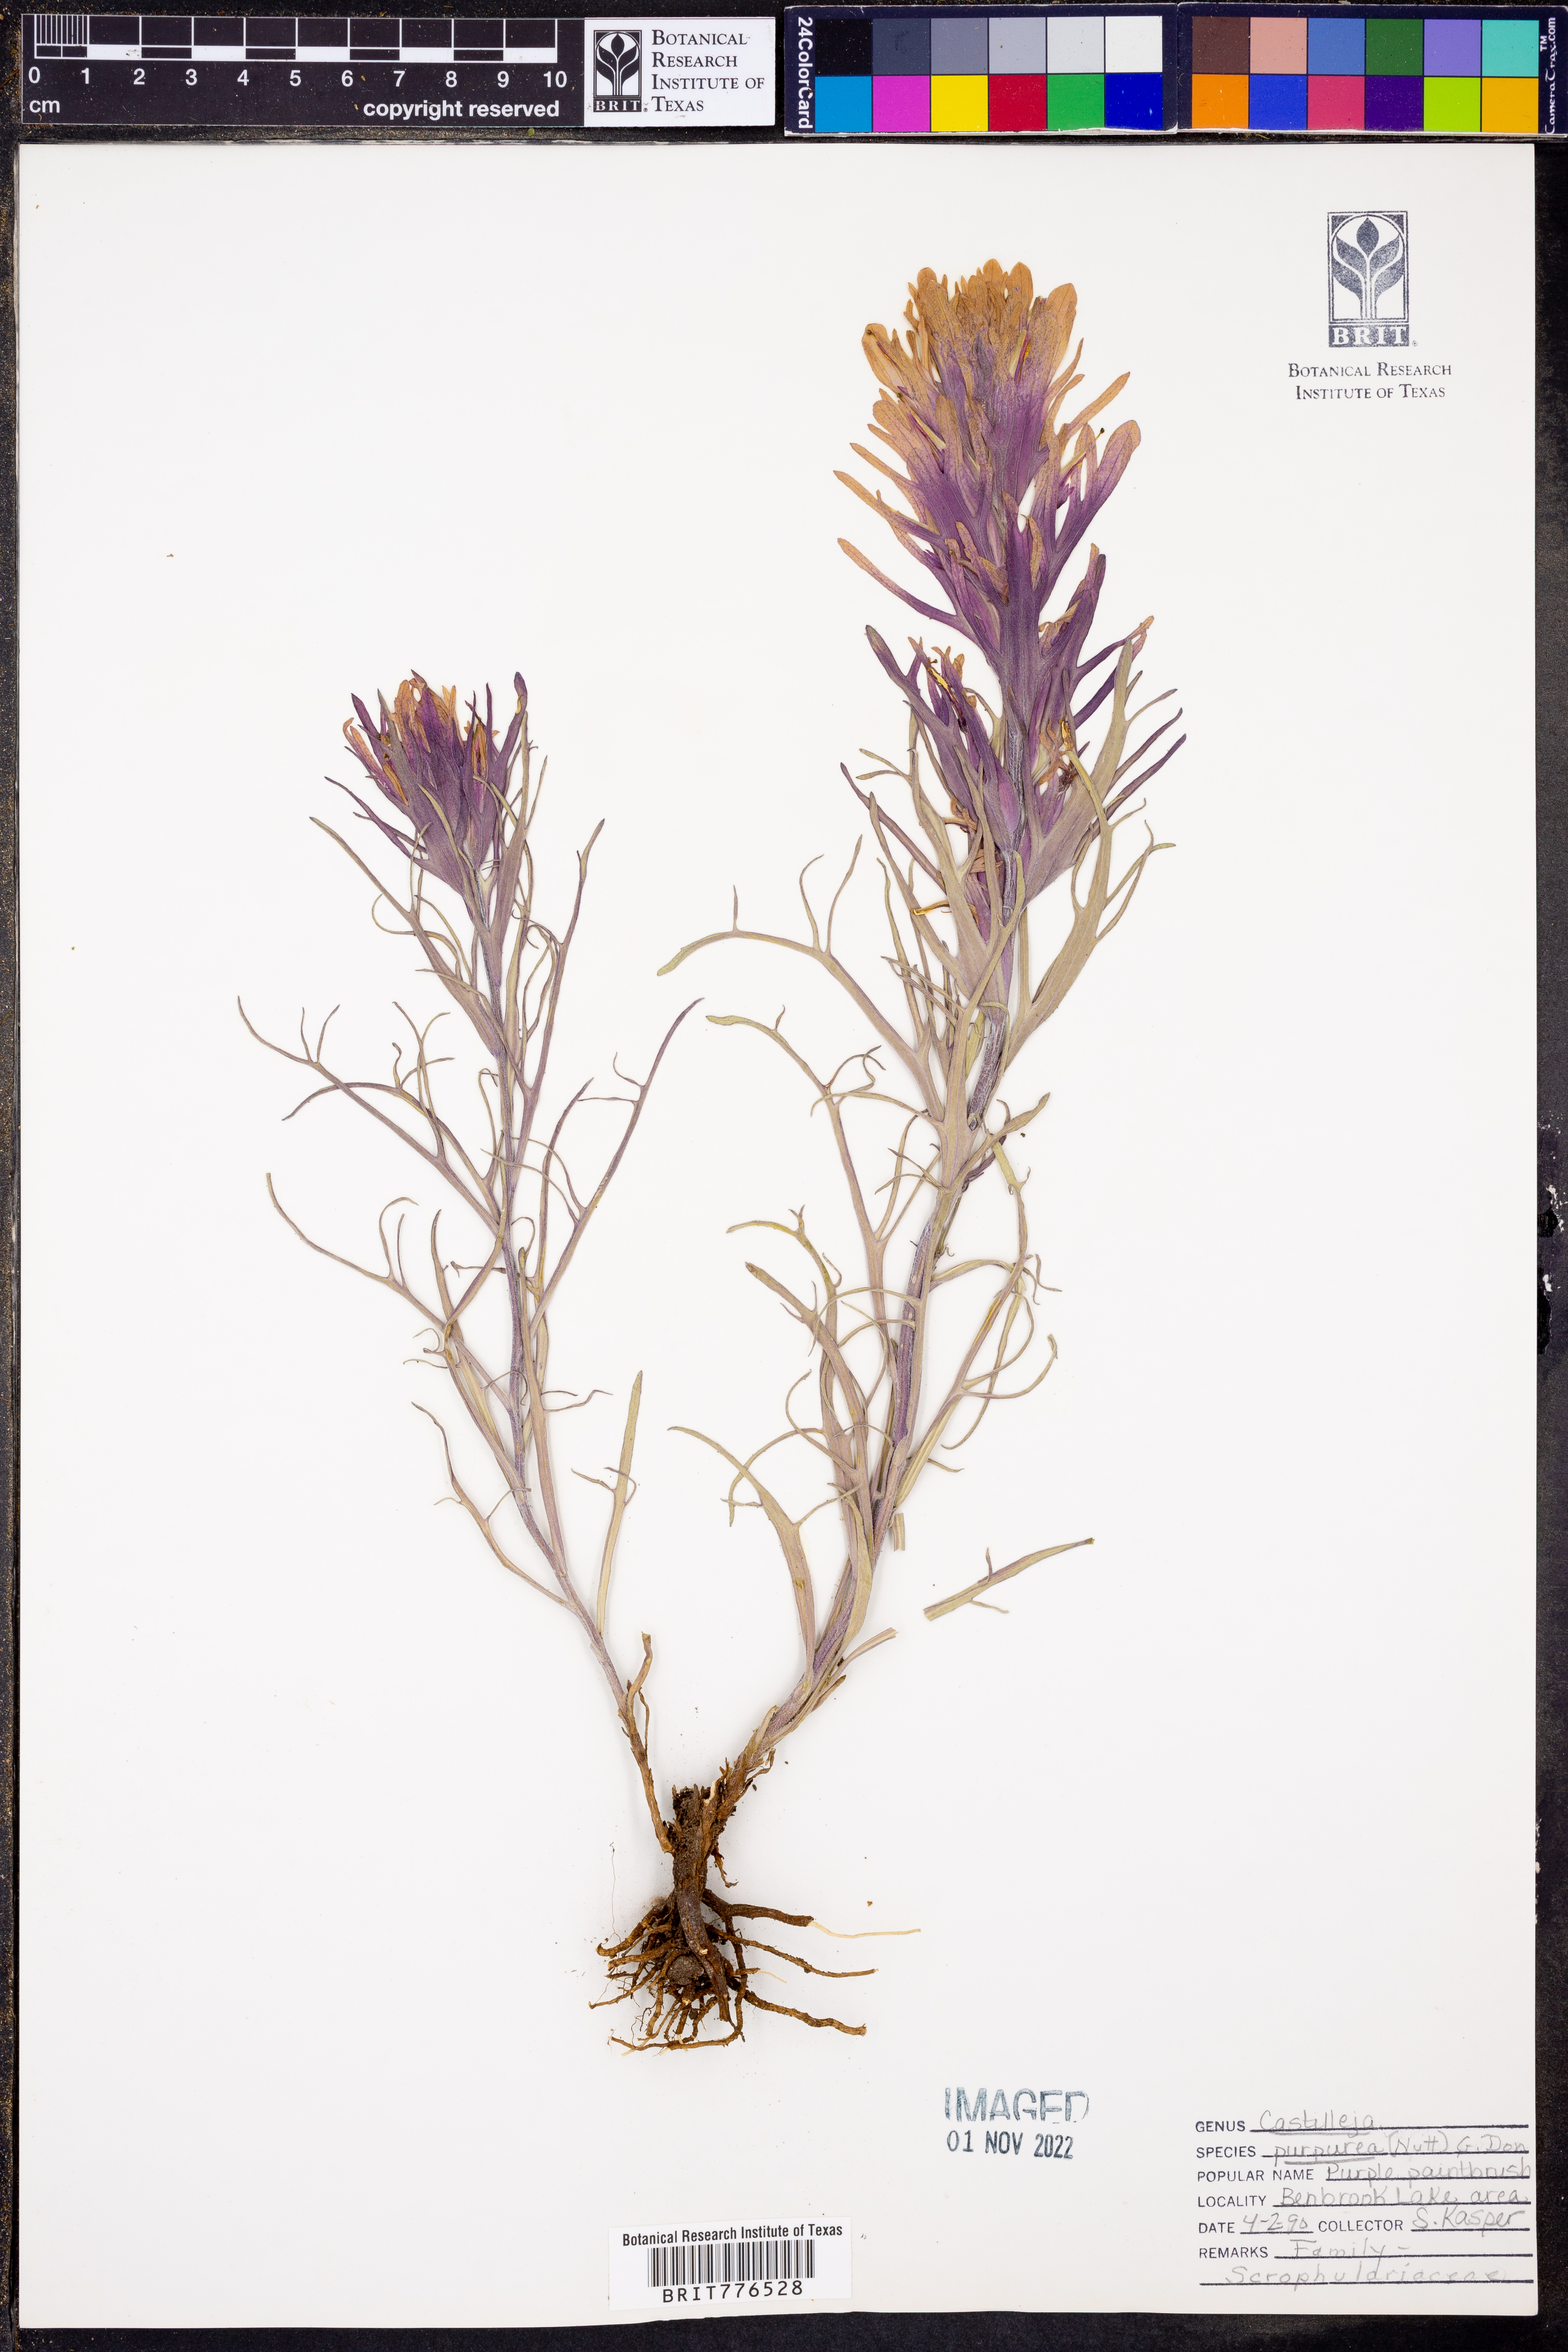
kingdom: Plantae
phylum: Tracheophyta
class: Magnoliopsida
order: Lamiales
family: Orobanchaceae
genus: Castilleja
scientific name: Castilleja purpurea
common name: Plains paintbrush
